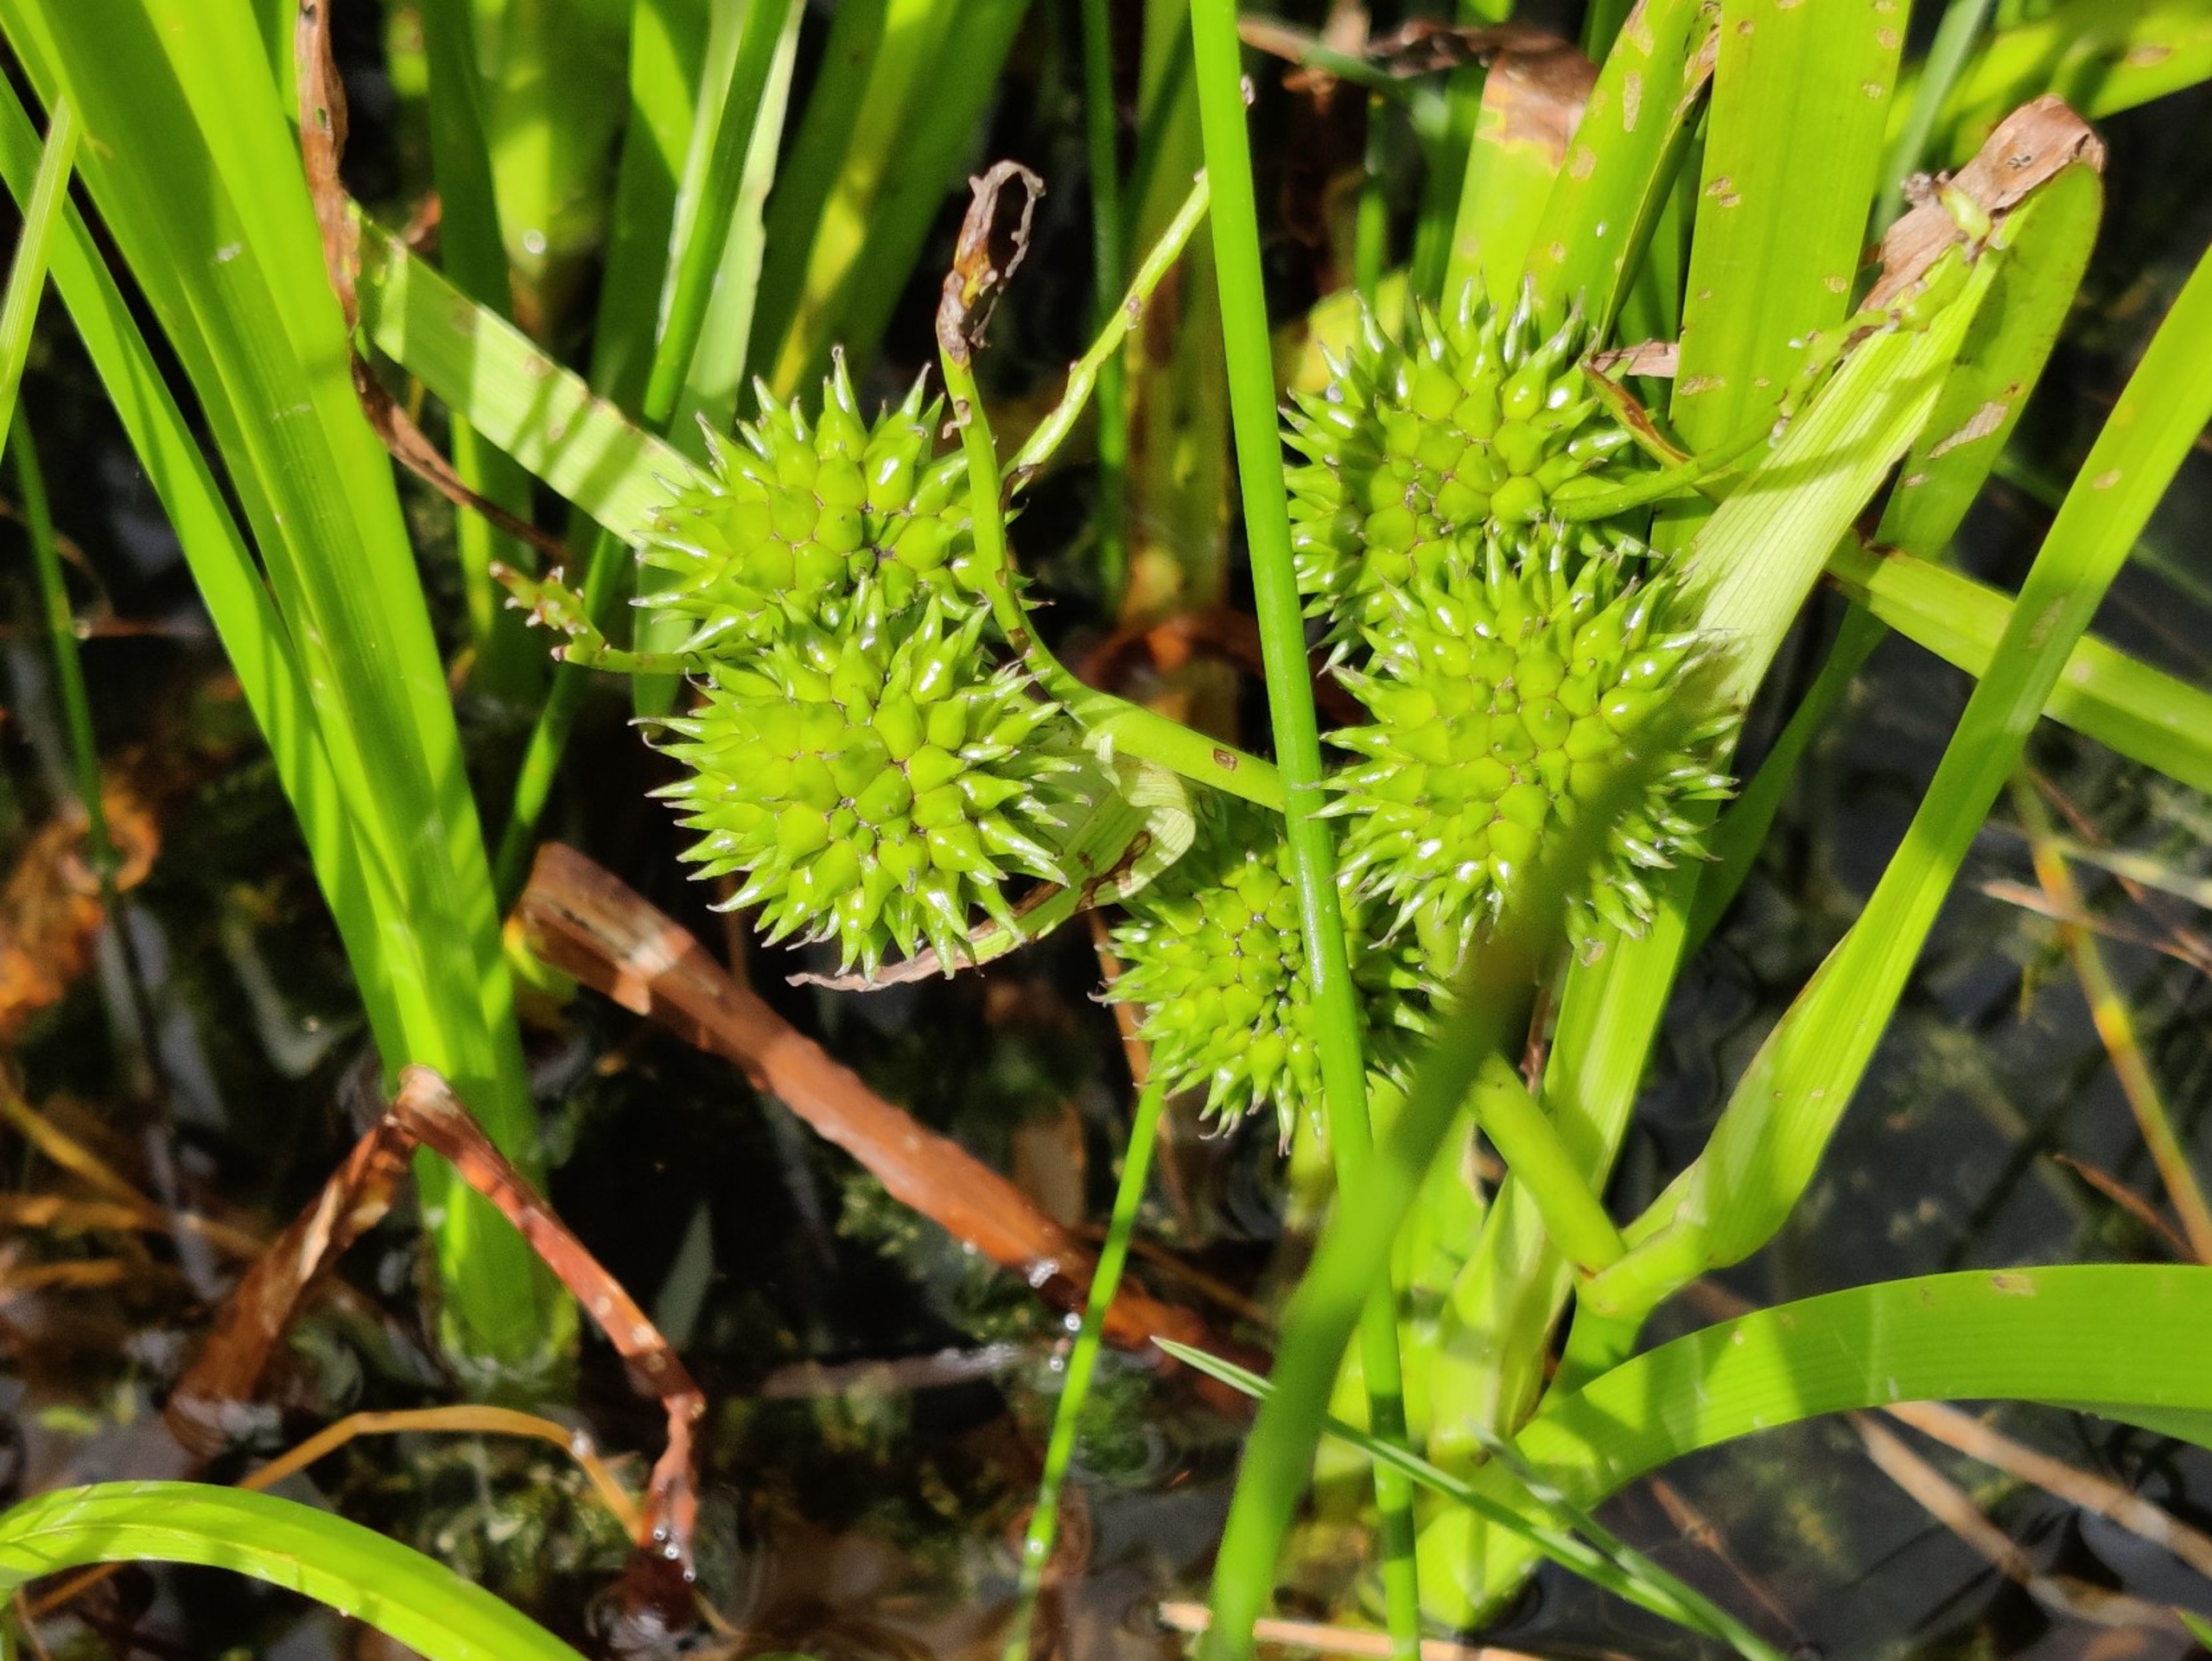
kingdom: Plantae
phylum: Tracheophyta
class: Liliopsida
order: Poales
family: Typhaceae
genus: Sparganium
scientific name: Sparganium erectum
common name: Ten-pindsvineknop
